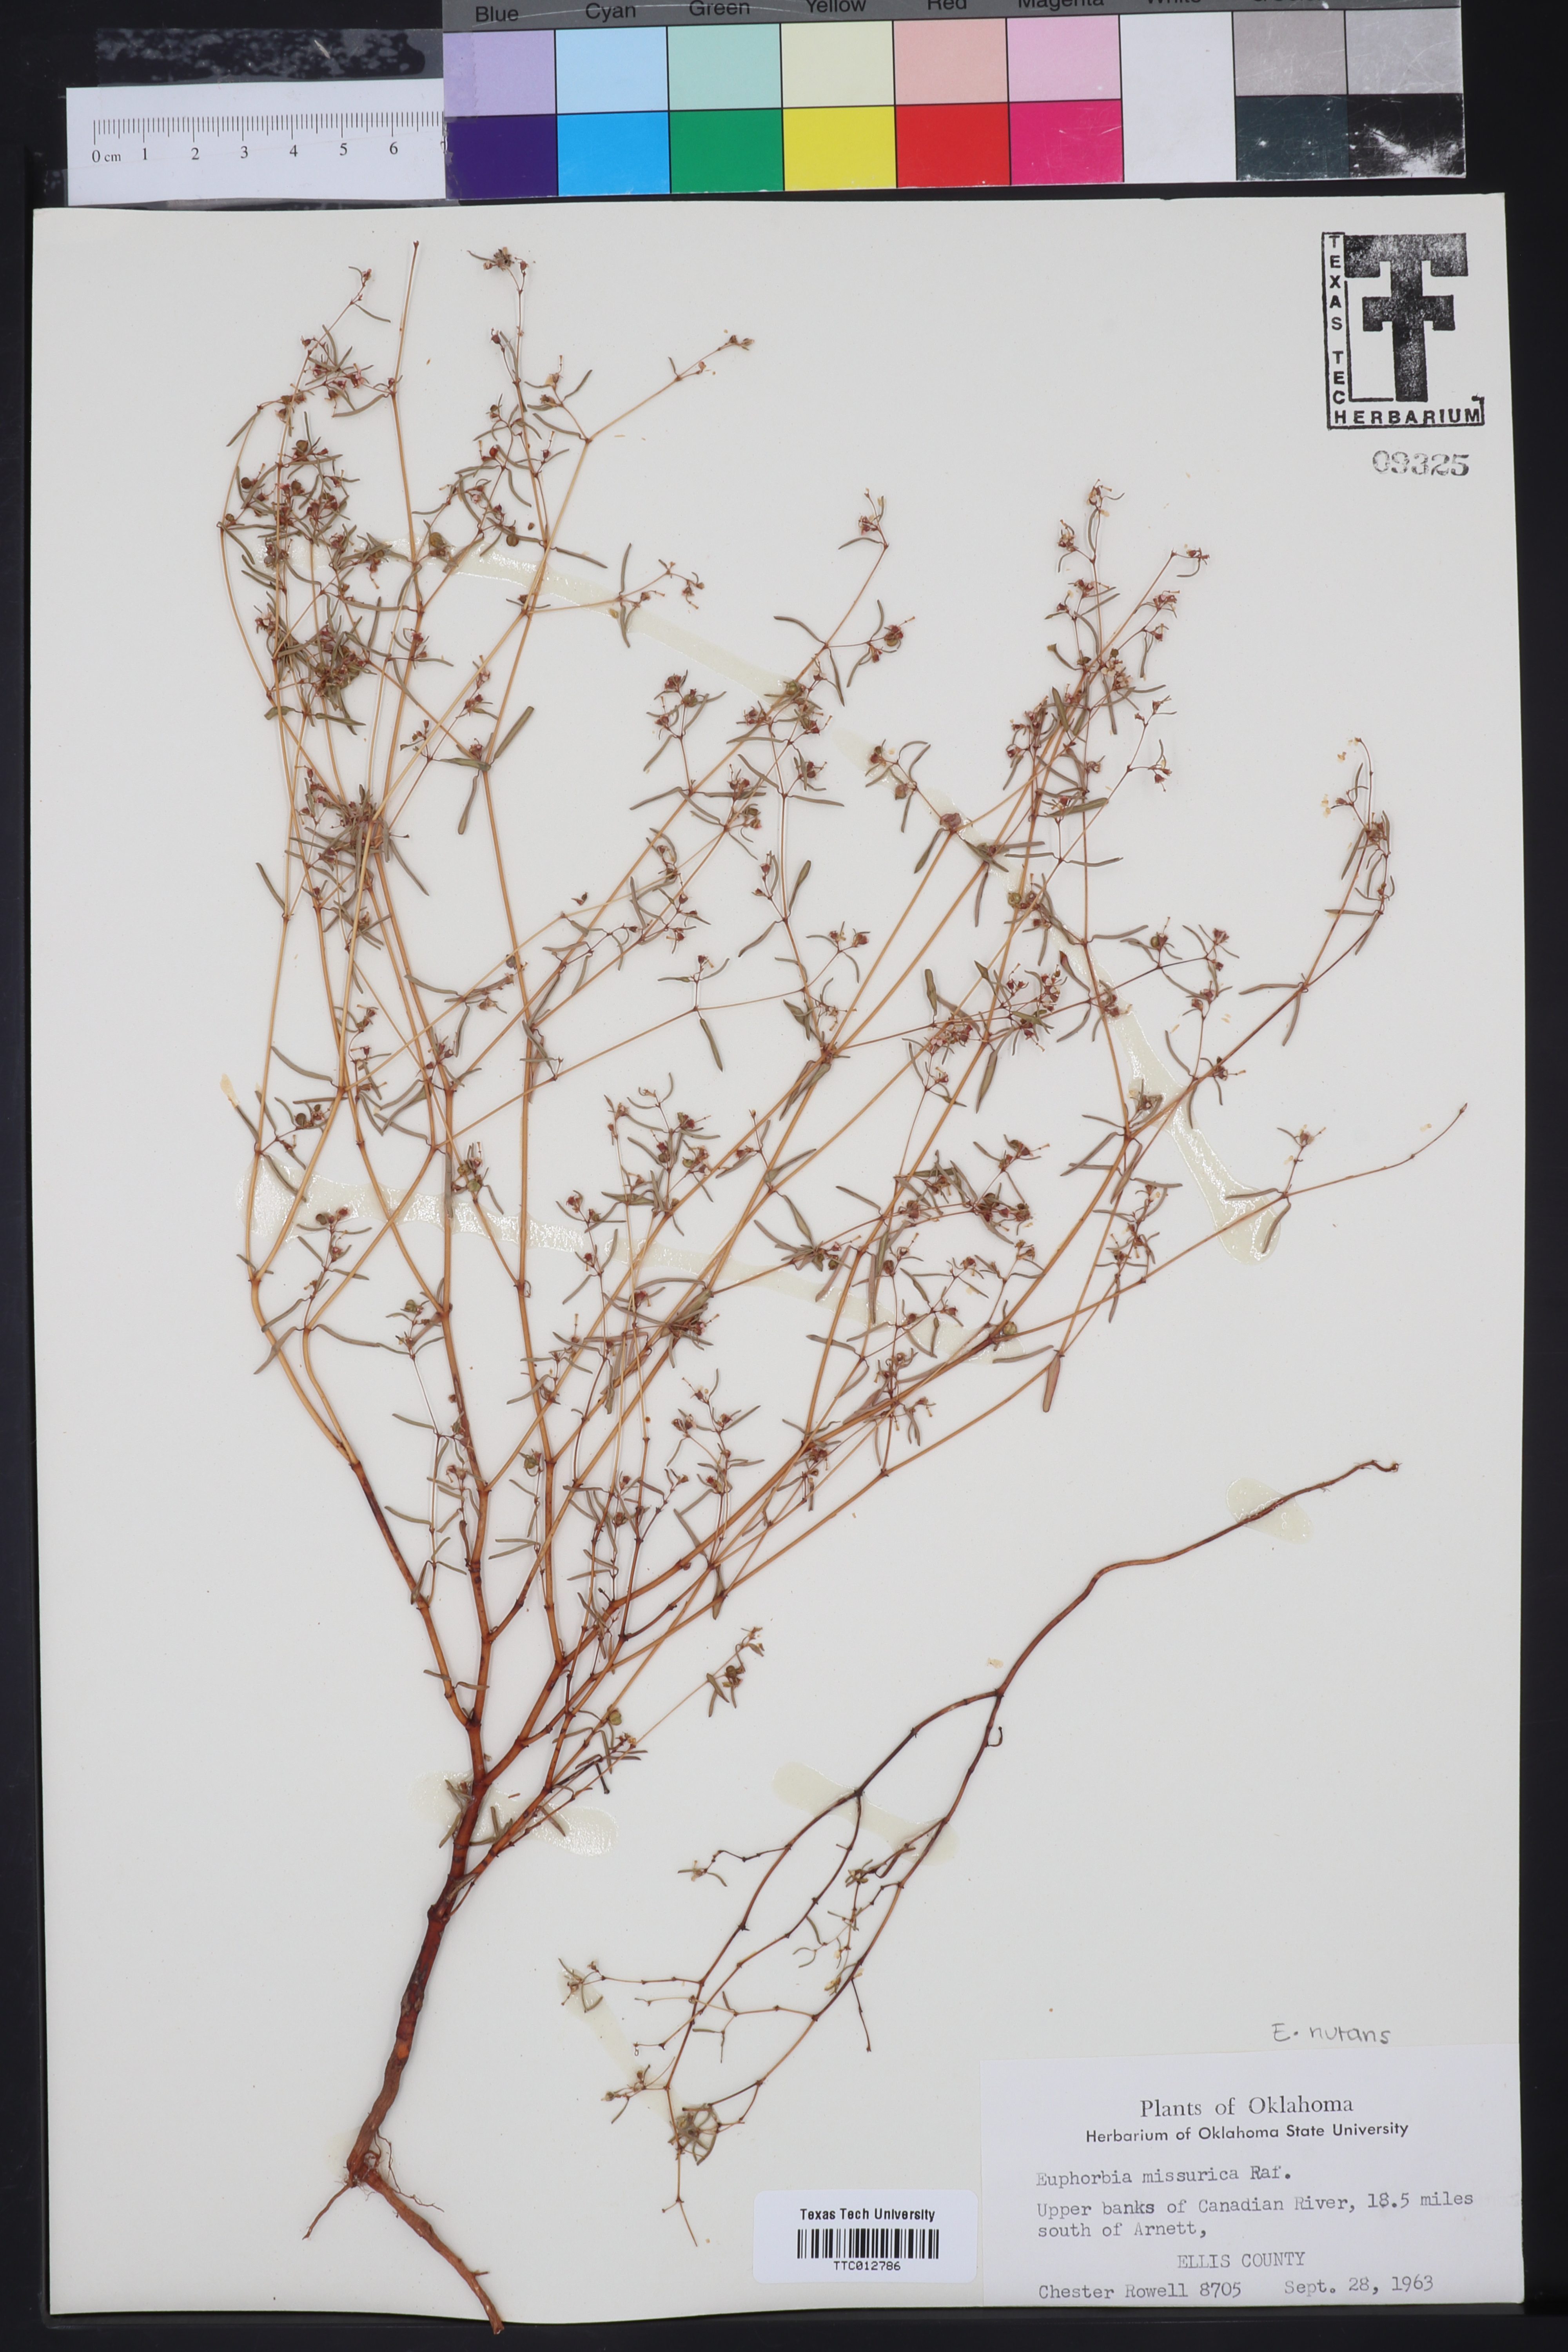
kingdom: Plantae
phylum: Tracheophyta
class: Magnoliopsida
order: Malpighiales
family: Euphorbiaceae
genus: Euphorbia
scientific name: Euphorbia missurica
